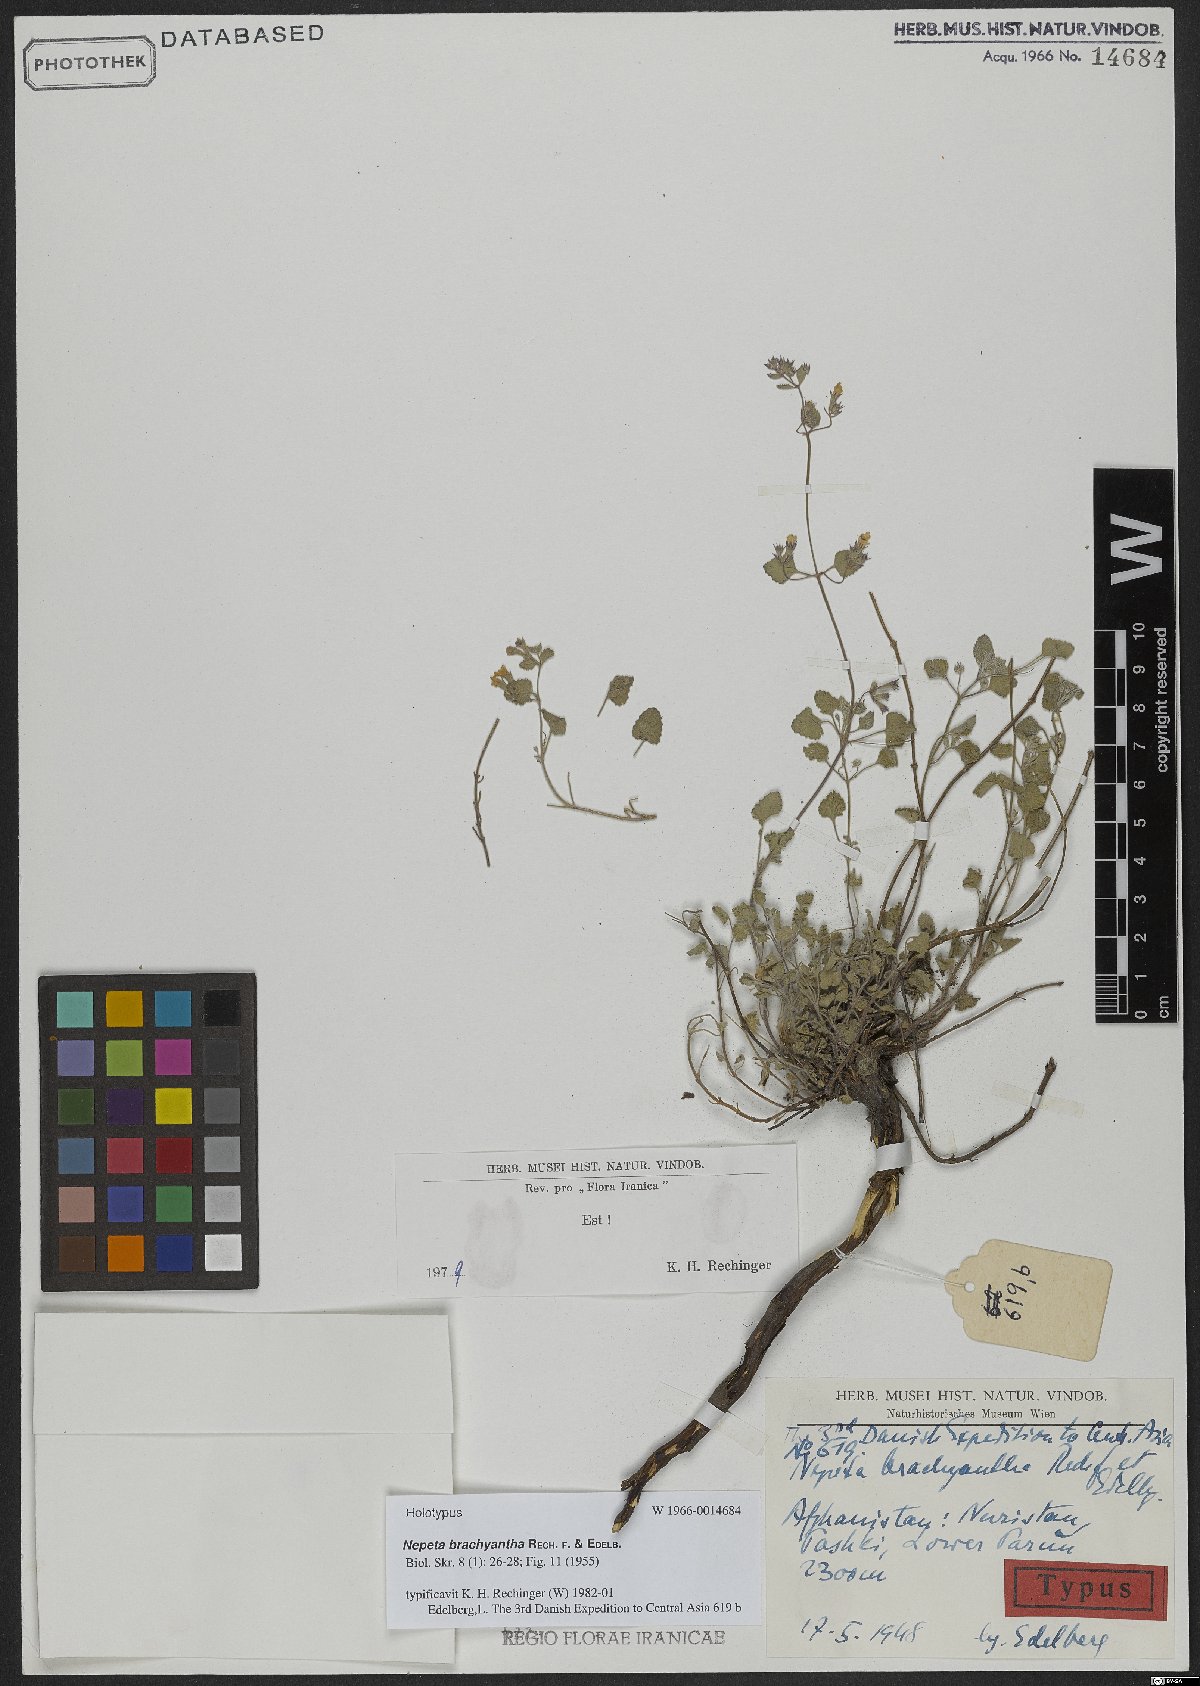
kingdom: Plantae
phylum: Tracheophyta
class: Magnoliopsida
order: Lamiales
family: Lamiaceae
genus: Nepeta
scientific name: Nepeta brachyantha
